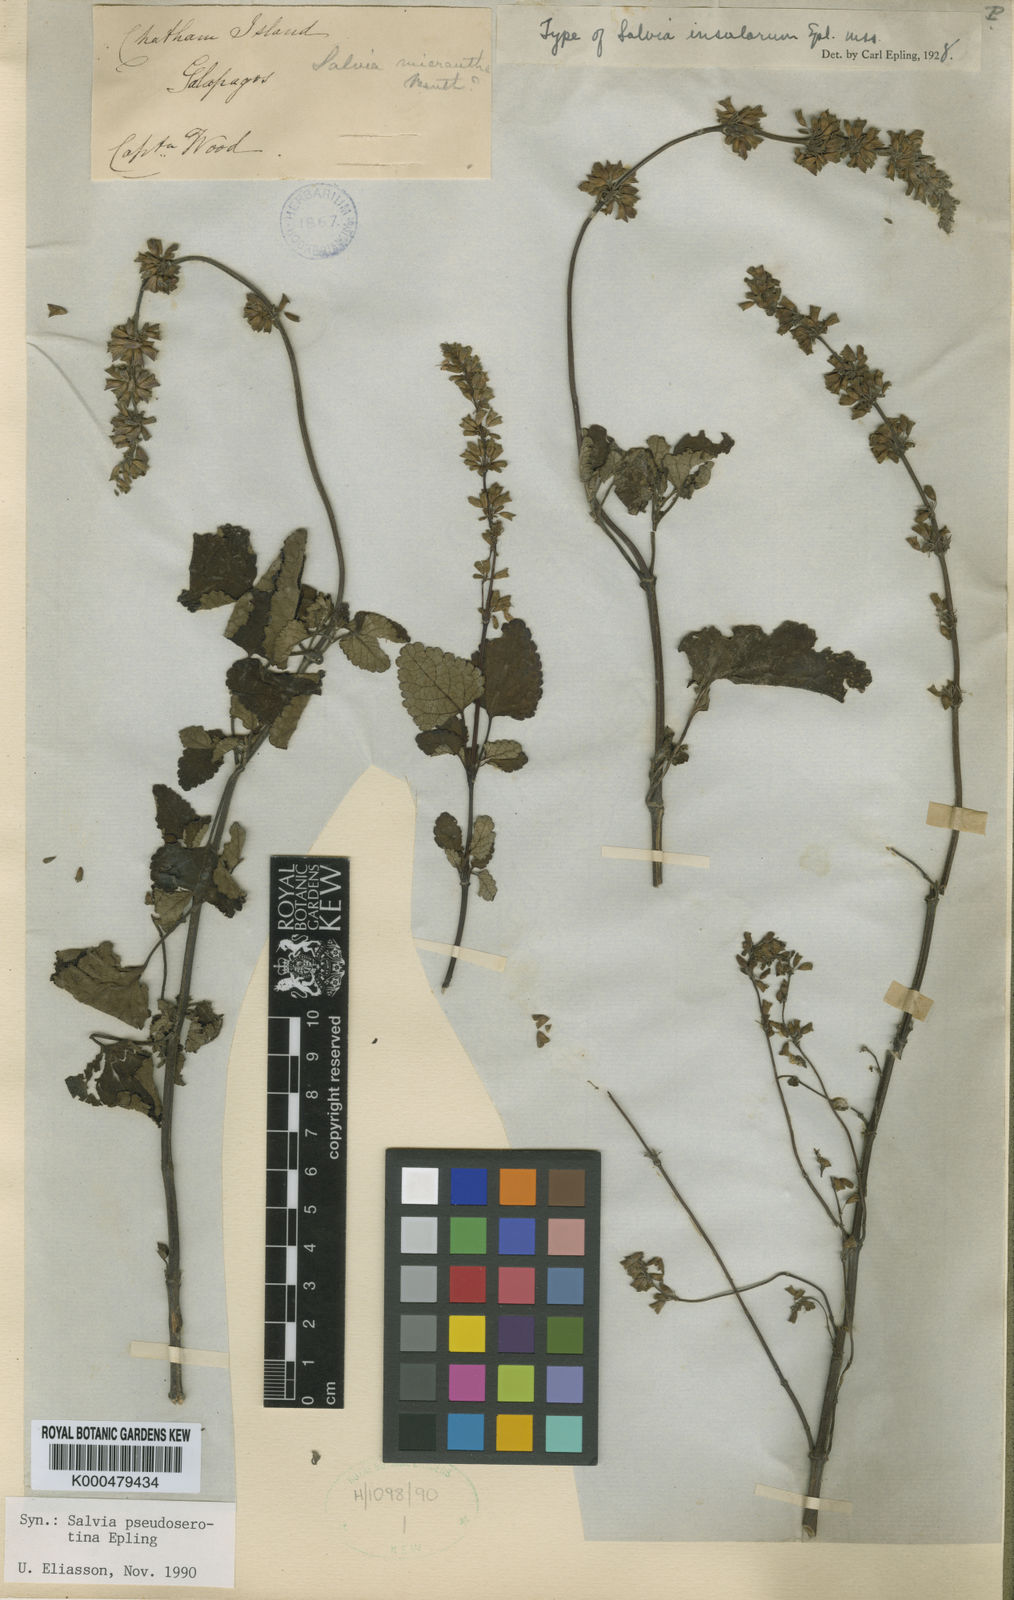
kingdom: Plantae
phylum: Tracheophyta
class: Magnoliopsida
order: Lamiales
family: Lamiaceae
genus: Salvia
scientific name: Salvia serotina
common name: Catnip
